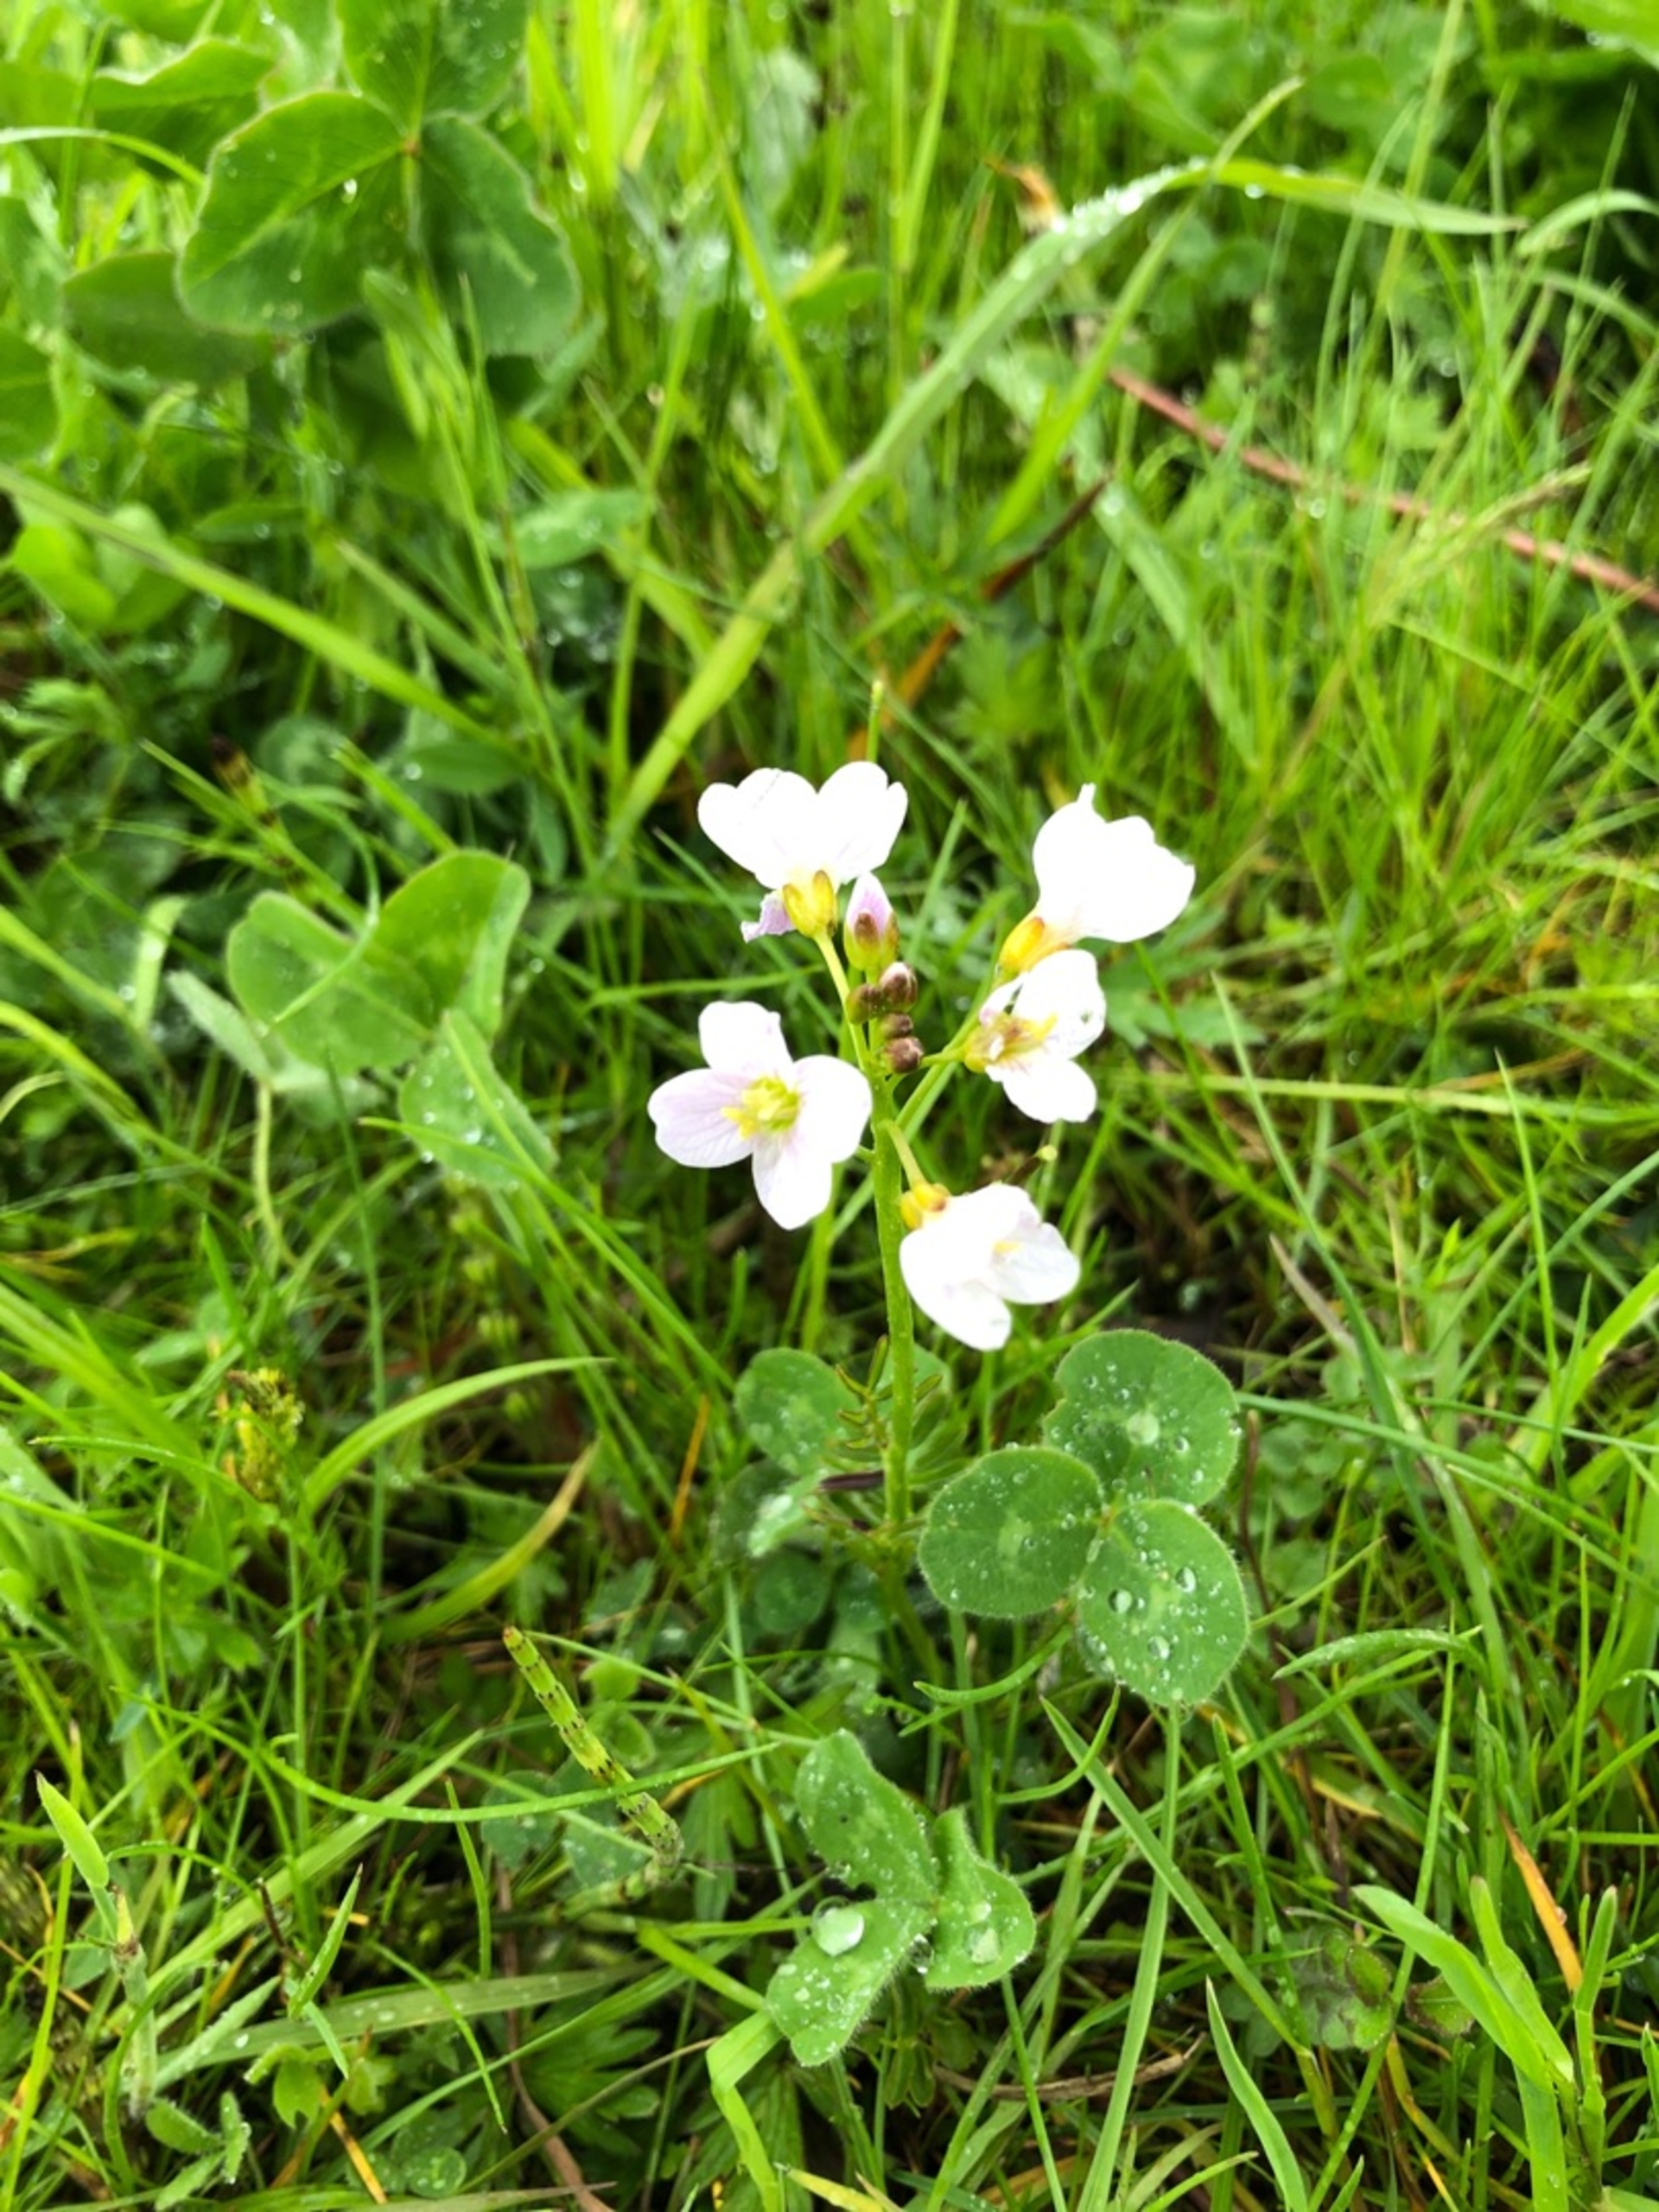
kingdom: Plantae
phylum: Tracheophyta
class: Magnoliopsida
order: Brassicales
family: Brassicaceae
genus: Cardamine
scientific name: Cardamine pratensis
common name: Engkarse
